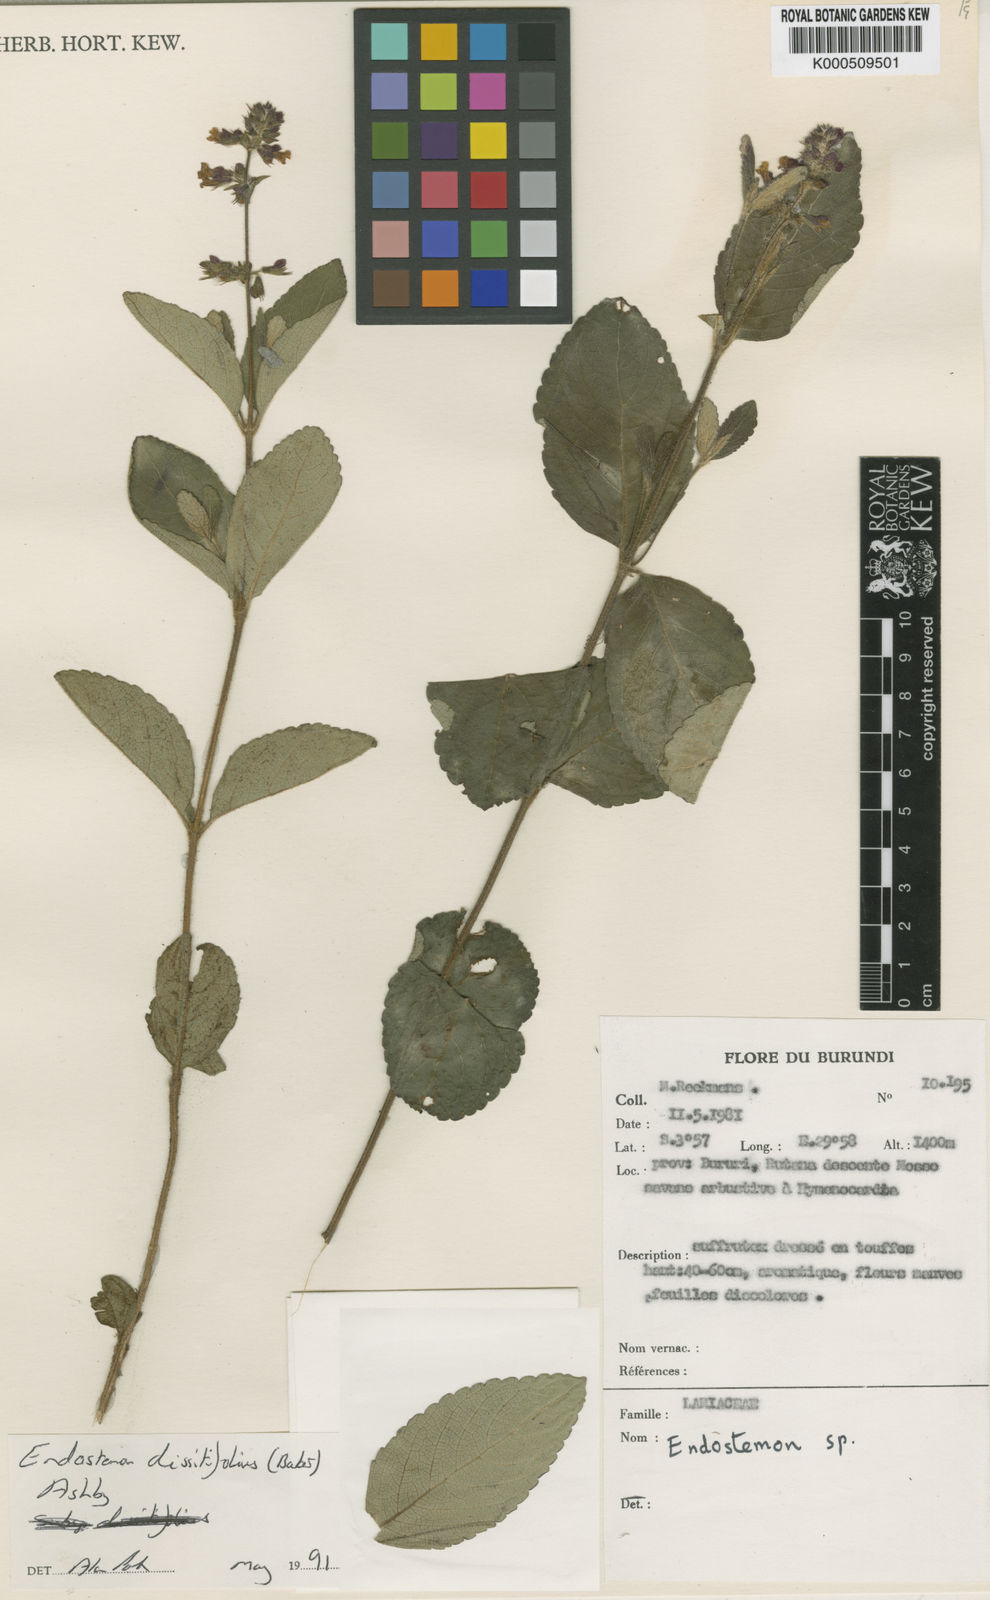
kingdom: Plantae
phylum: Tracheophyta
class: Magnoliopsida
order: Lamiales
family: Lamiaceae
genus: Endostemon
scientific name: Endostemon villosus
